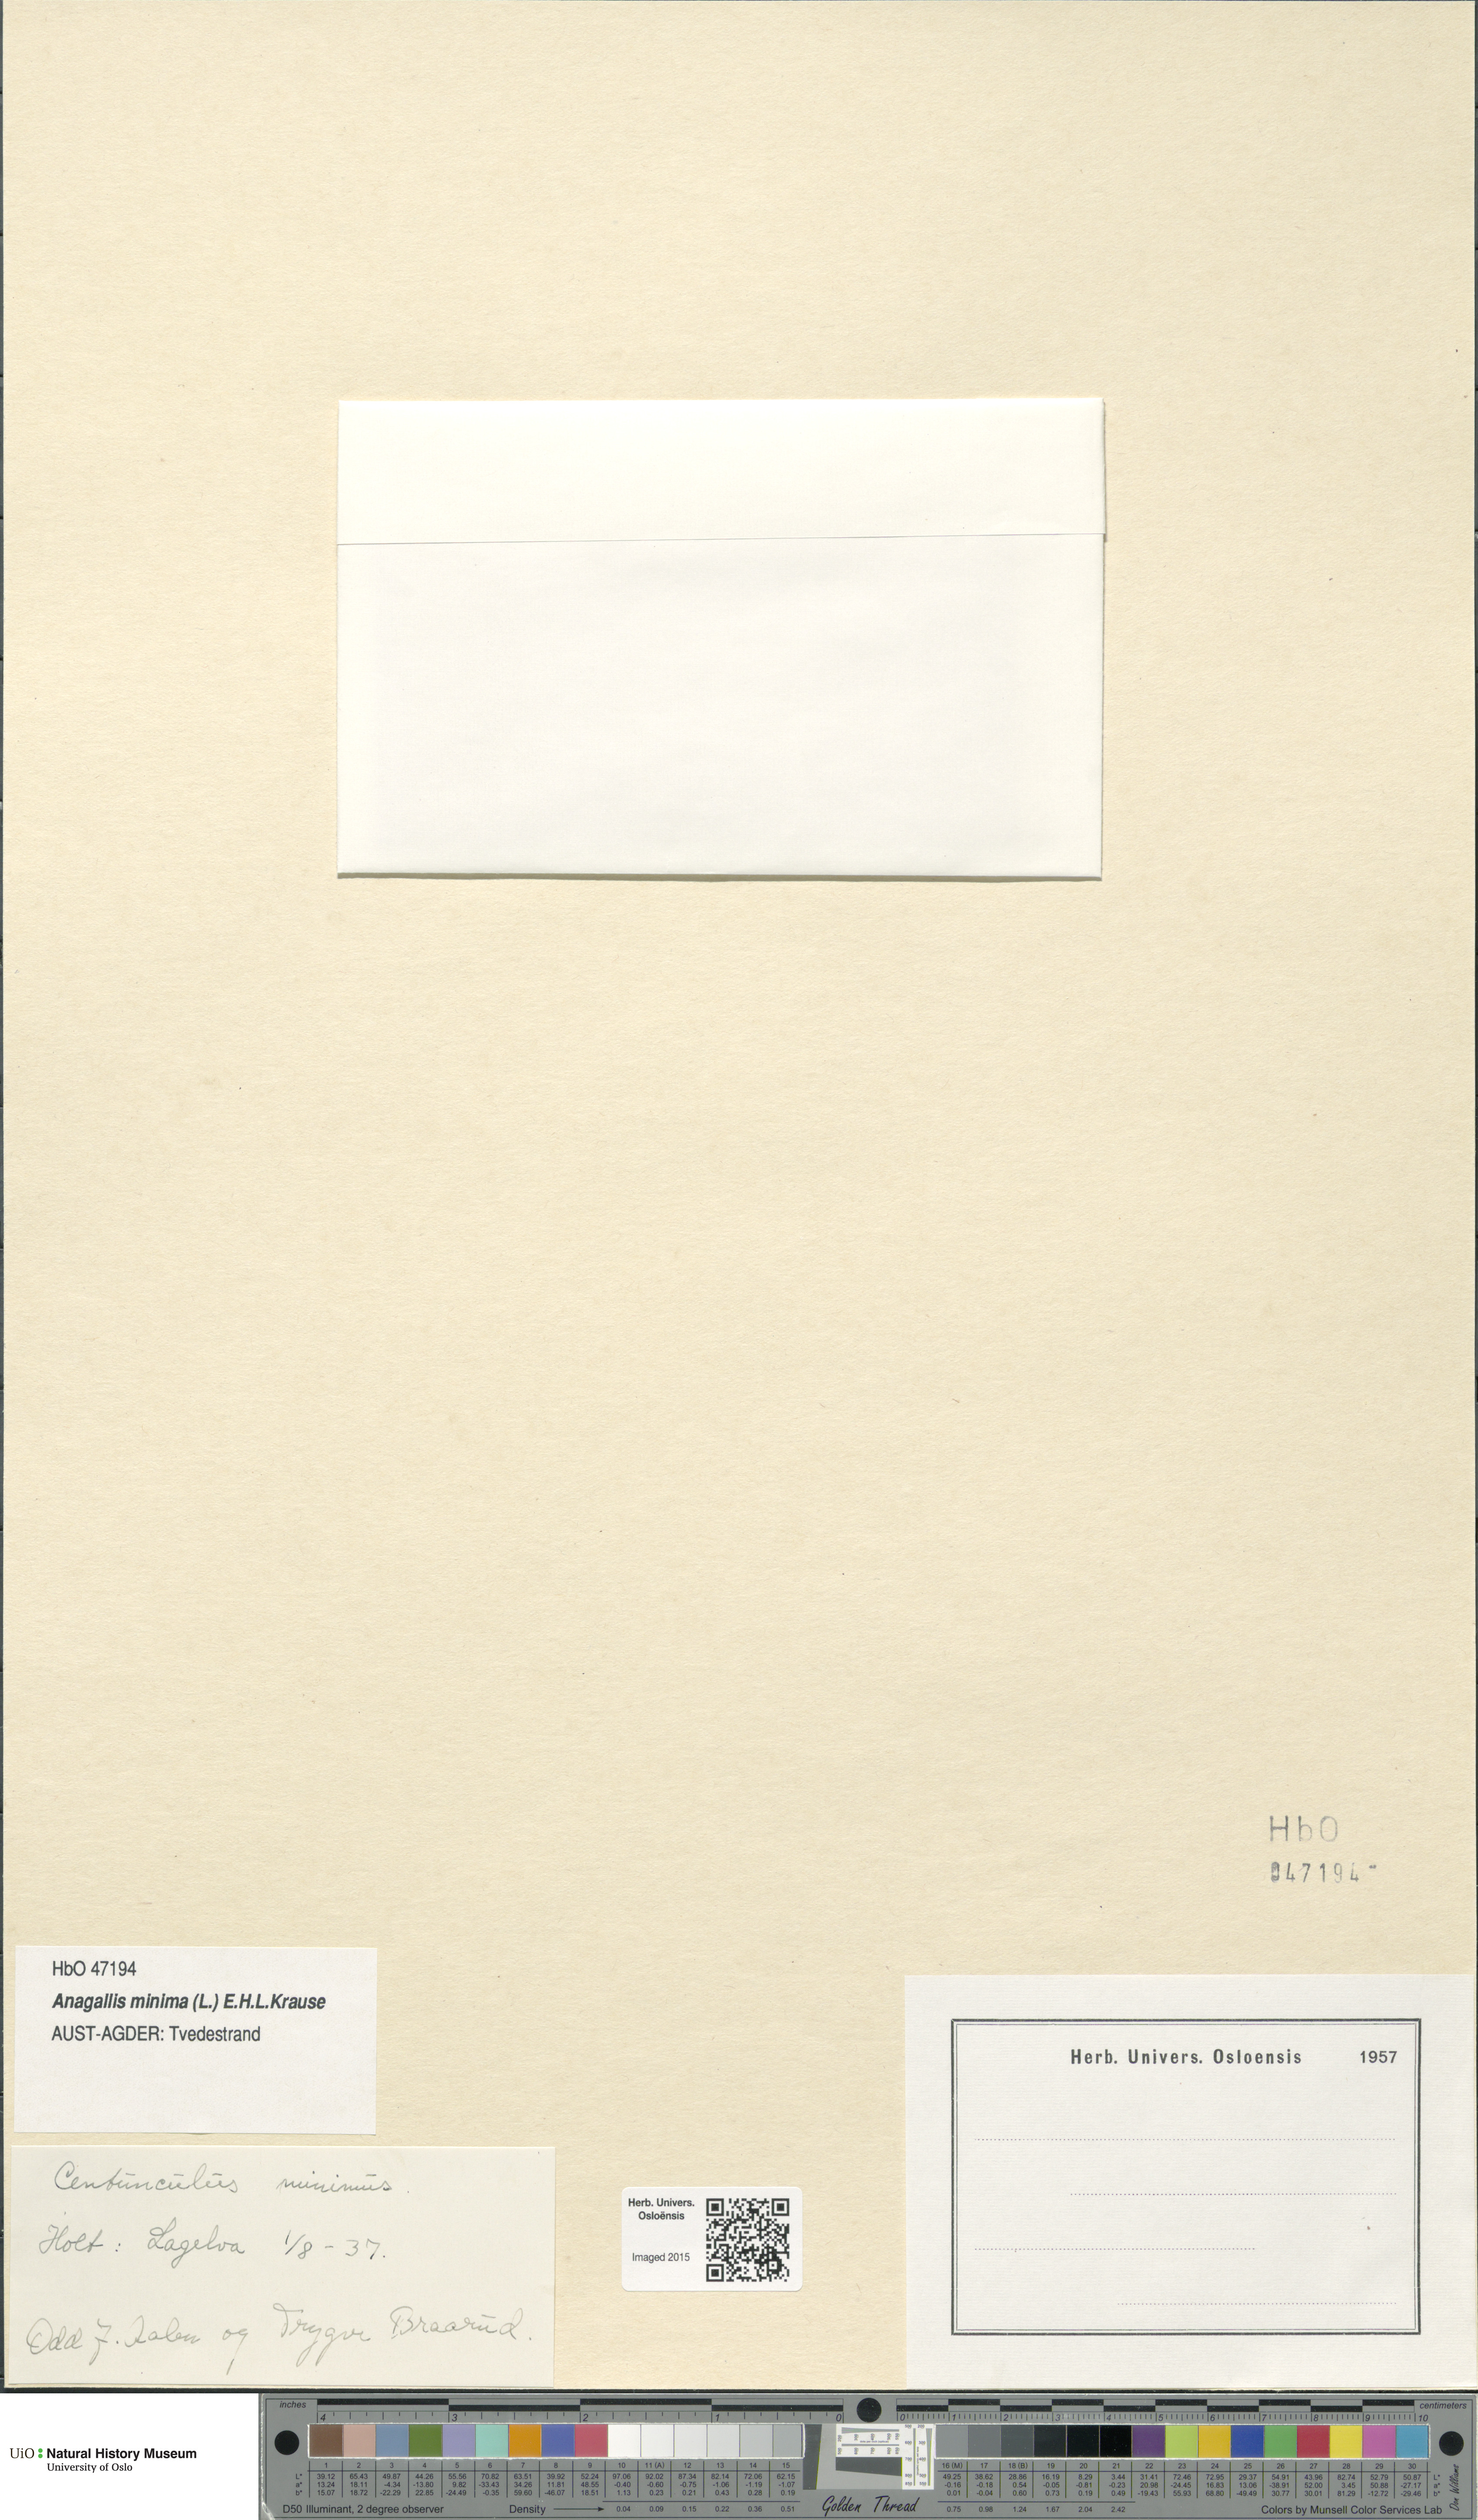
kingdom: Plantae
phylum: Tracheophyta
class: Magnoliopsida
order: Ericales
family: Primulaceae
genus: Lysimachia
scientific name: Lysimachia minima
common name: Chaffweed
